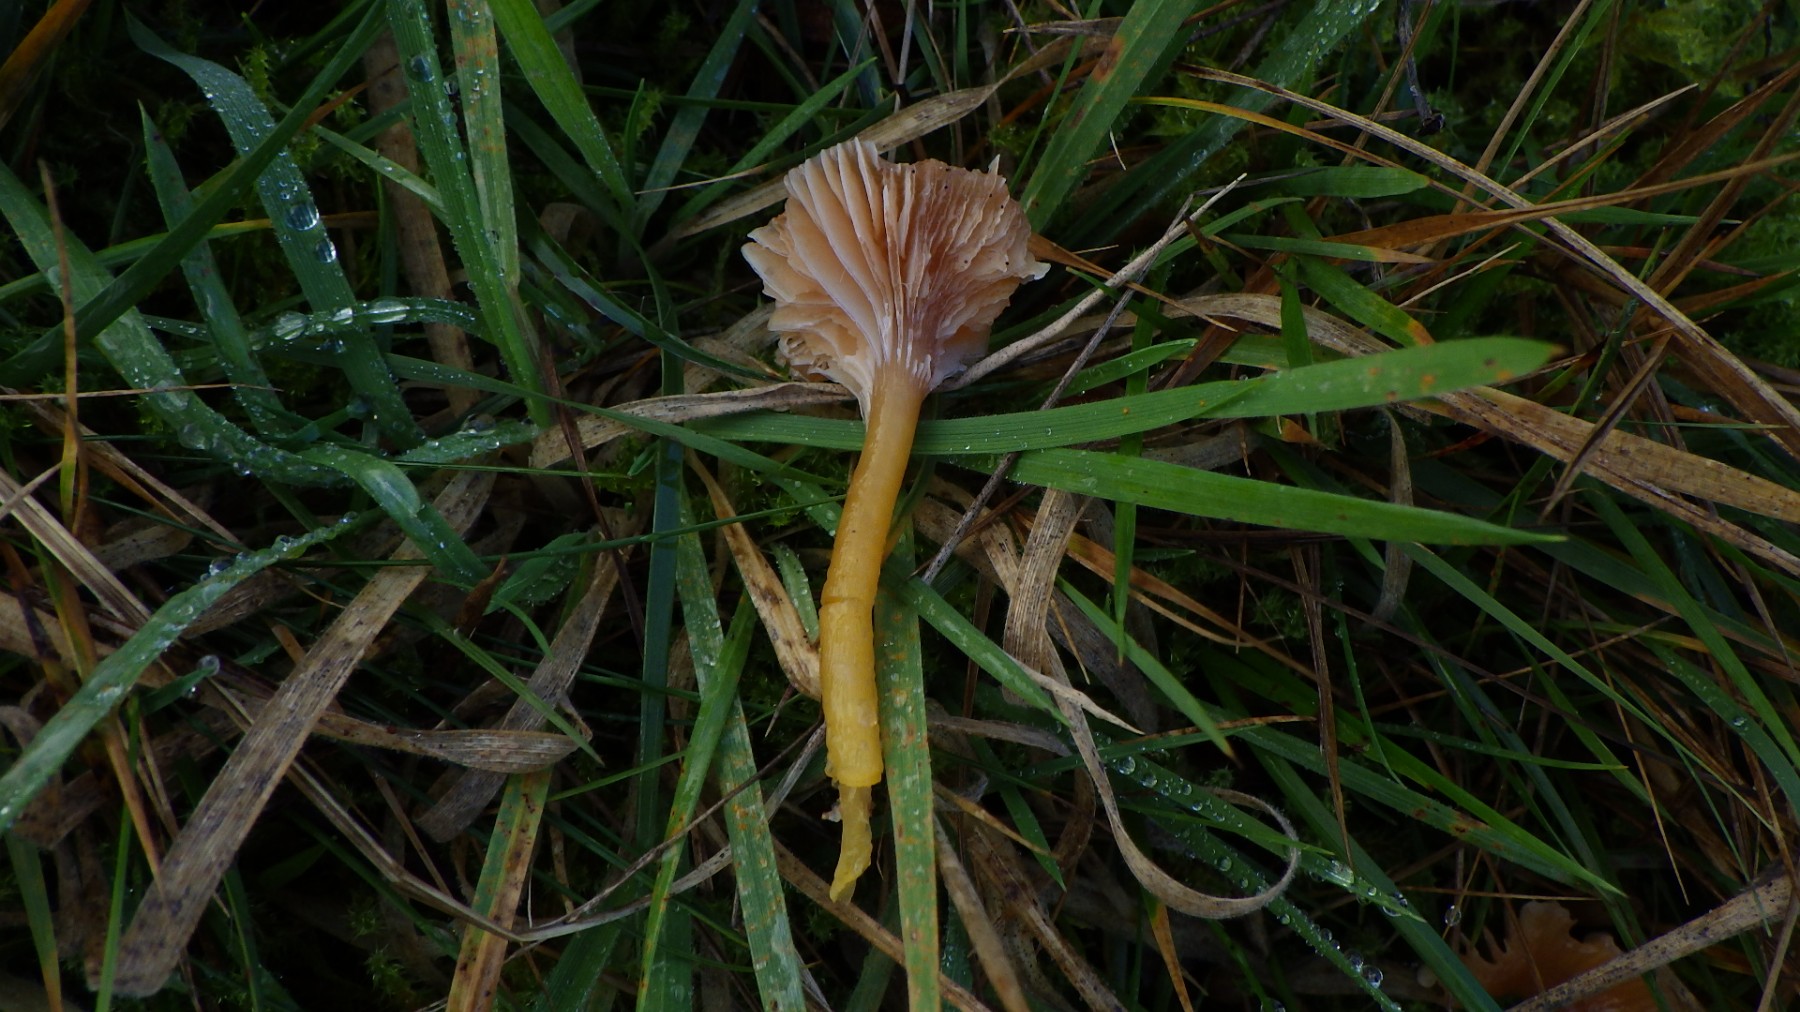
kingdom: Fungi
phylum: Basidiomycota
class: Agaricomycetes
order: Agaricales
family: Hygrophoraceae
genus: Gliophorus
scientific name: Gliophorus laetus
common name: brusk-vokshat
